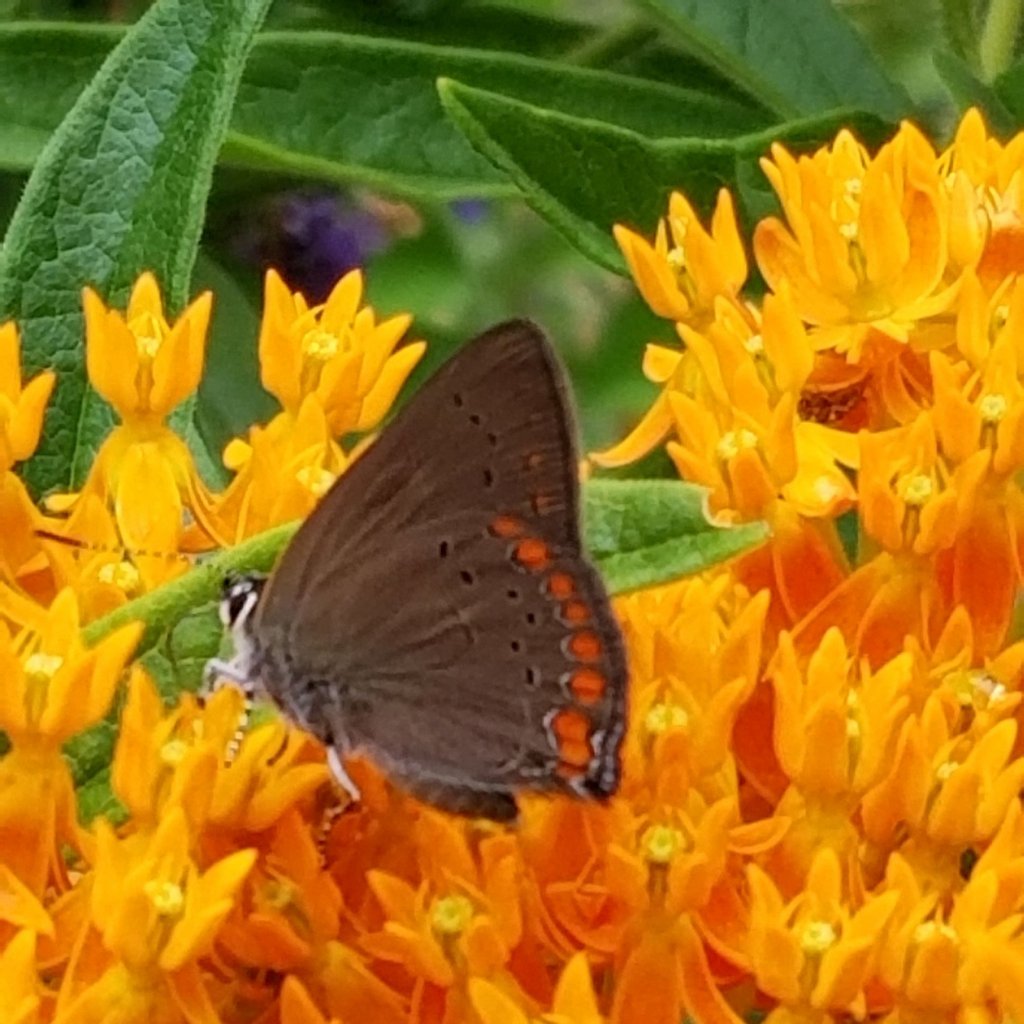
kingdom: Animalia
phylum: Arthropoda
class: Insecta
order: Lepidoptera
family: Lycaenidae
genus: Harkenclenus
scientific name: Harkenclenus titus
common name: Coral Hairstreak
